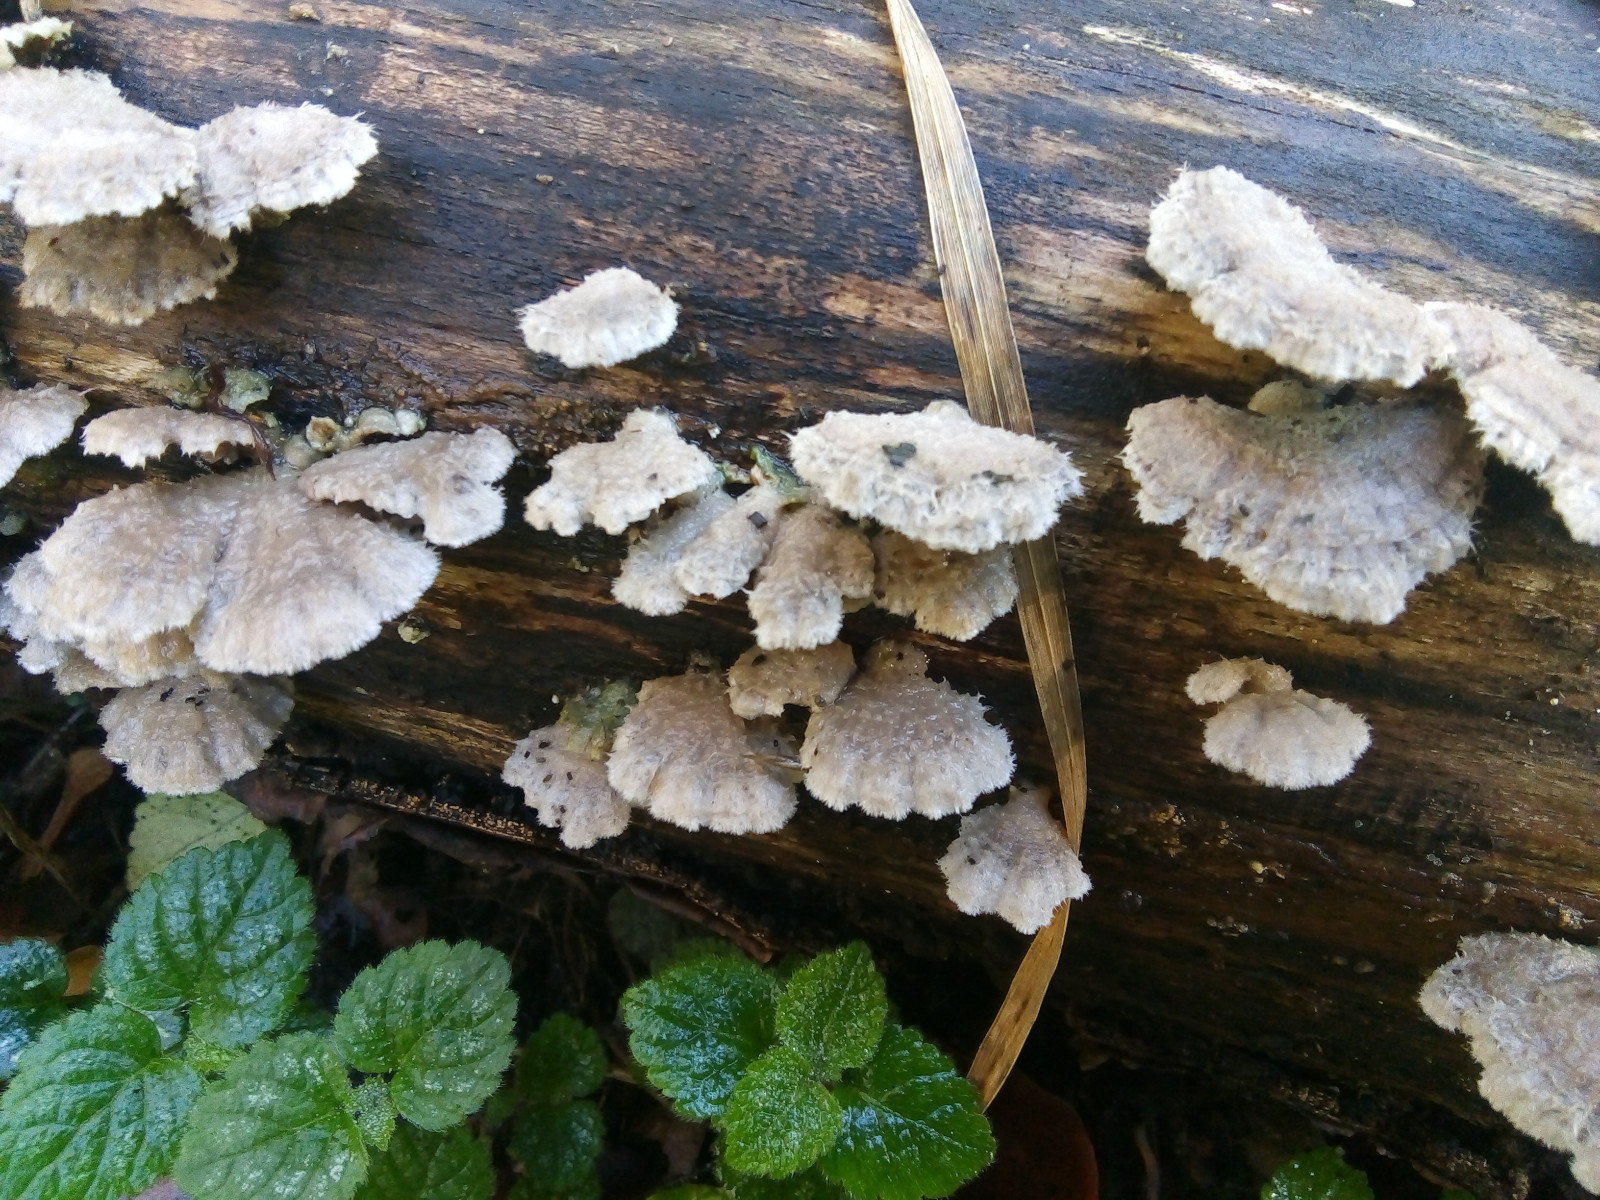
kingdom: Fungi
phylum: Basidiomycota
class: Agaricomycetes
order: Agaricales
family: Schizophyllaceae
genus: Schizophyllum
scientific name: Schizophyllum commune
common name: kløvblad
